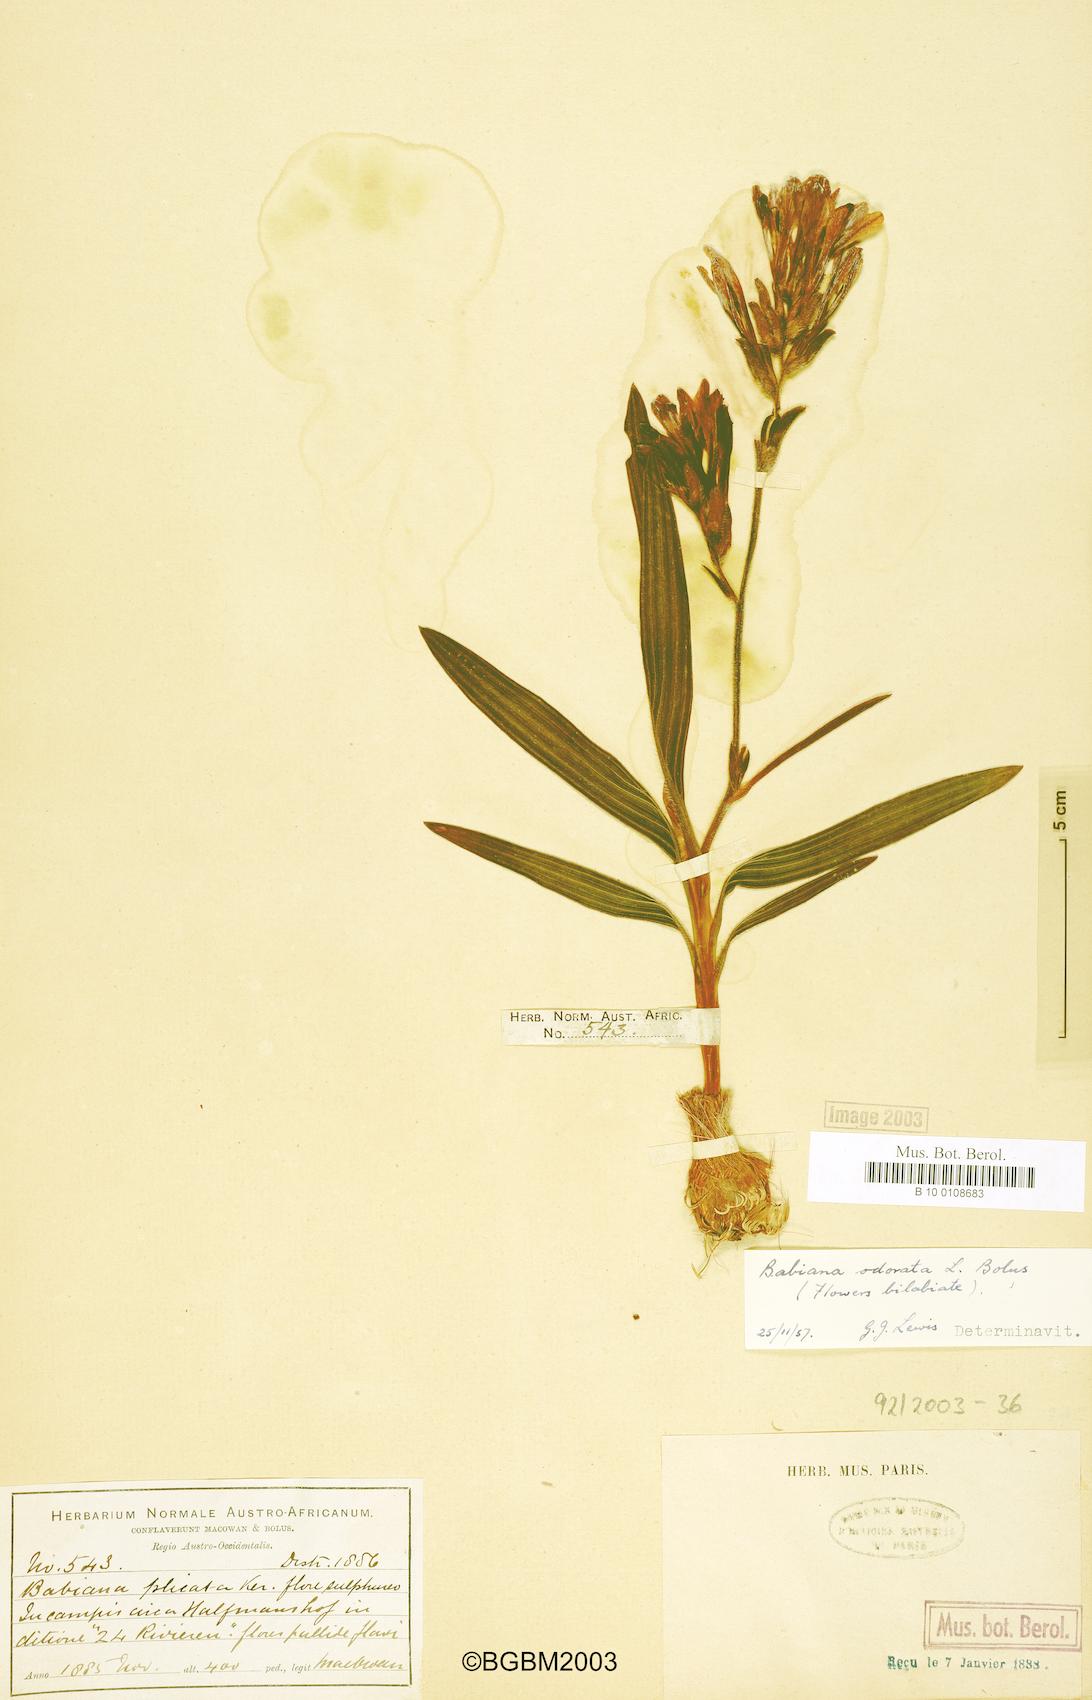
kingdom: Plantae
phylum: Tracheophyta
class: Liliopsida
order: Asparagales
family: Iridaceae
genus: Babiana
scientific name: Babiana odorata
